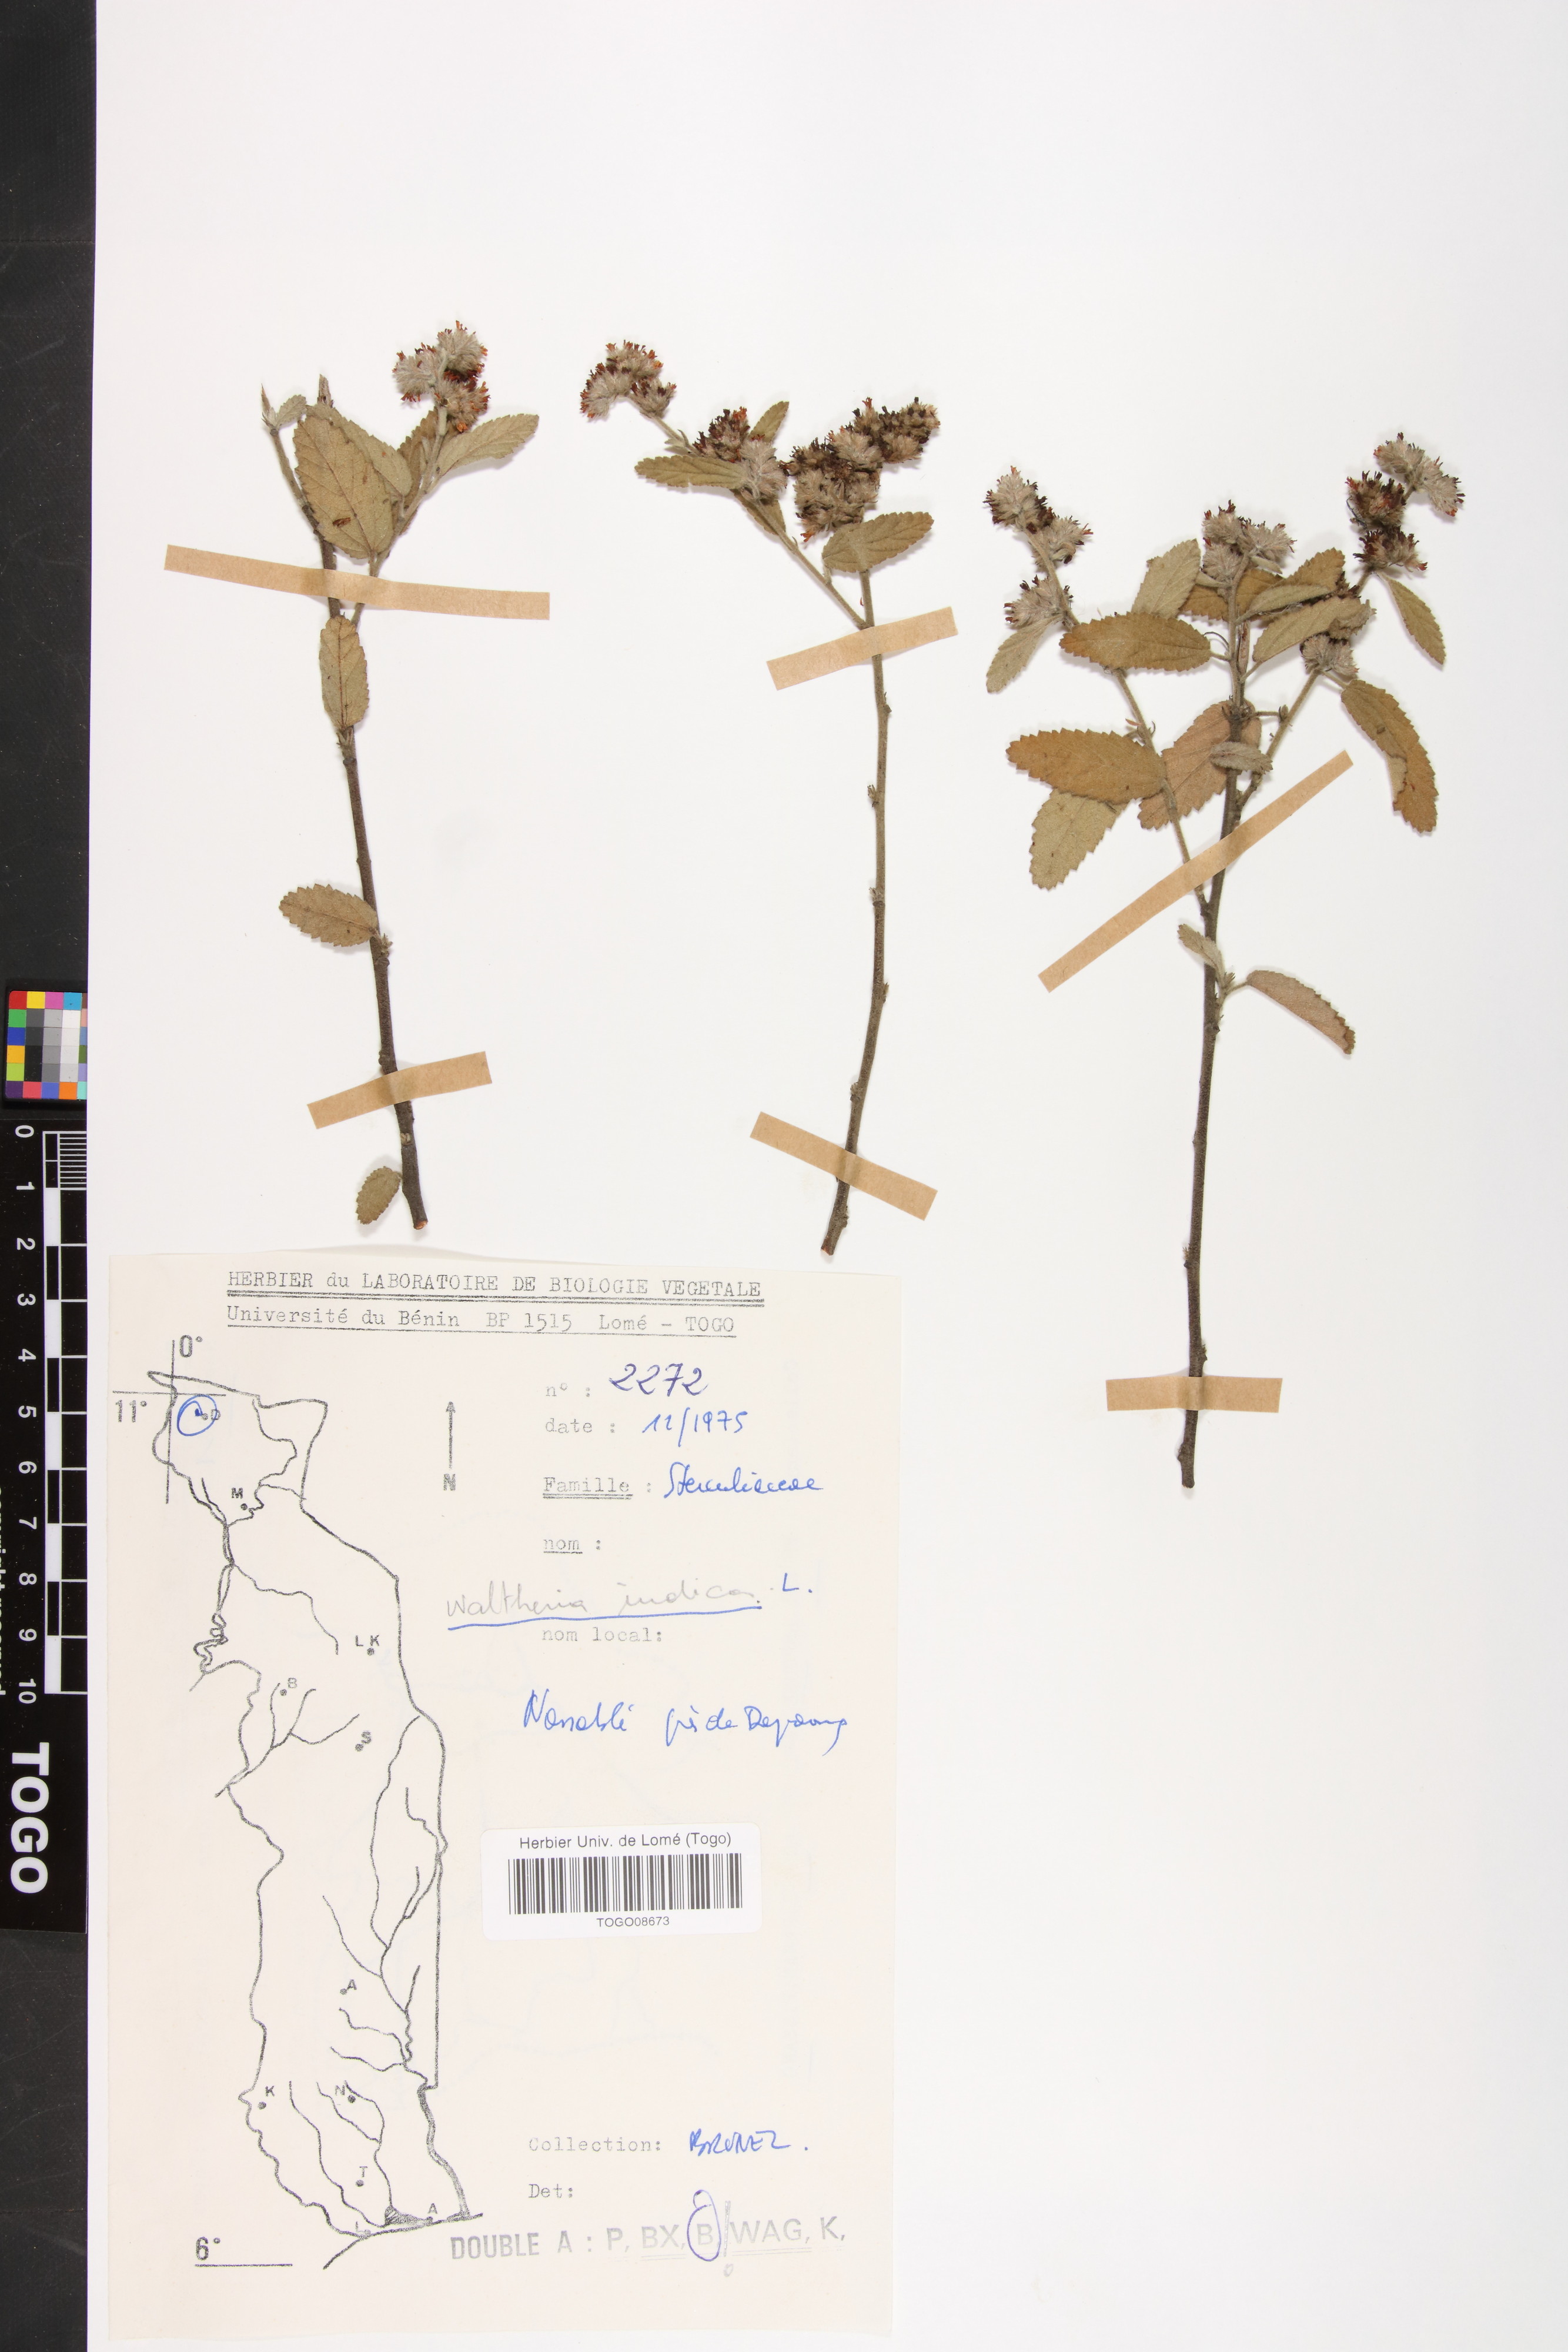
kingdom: Plantae
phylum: Tracheophyta
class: Magnoliopsida
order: Malvales
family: Malvaceae
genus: Waltheria
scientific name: Waltheria indica
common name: Leather-coat
